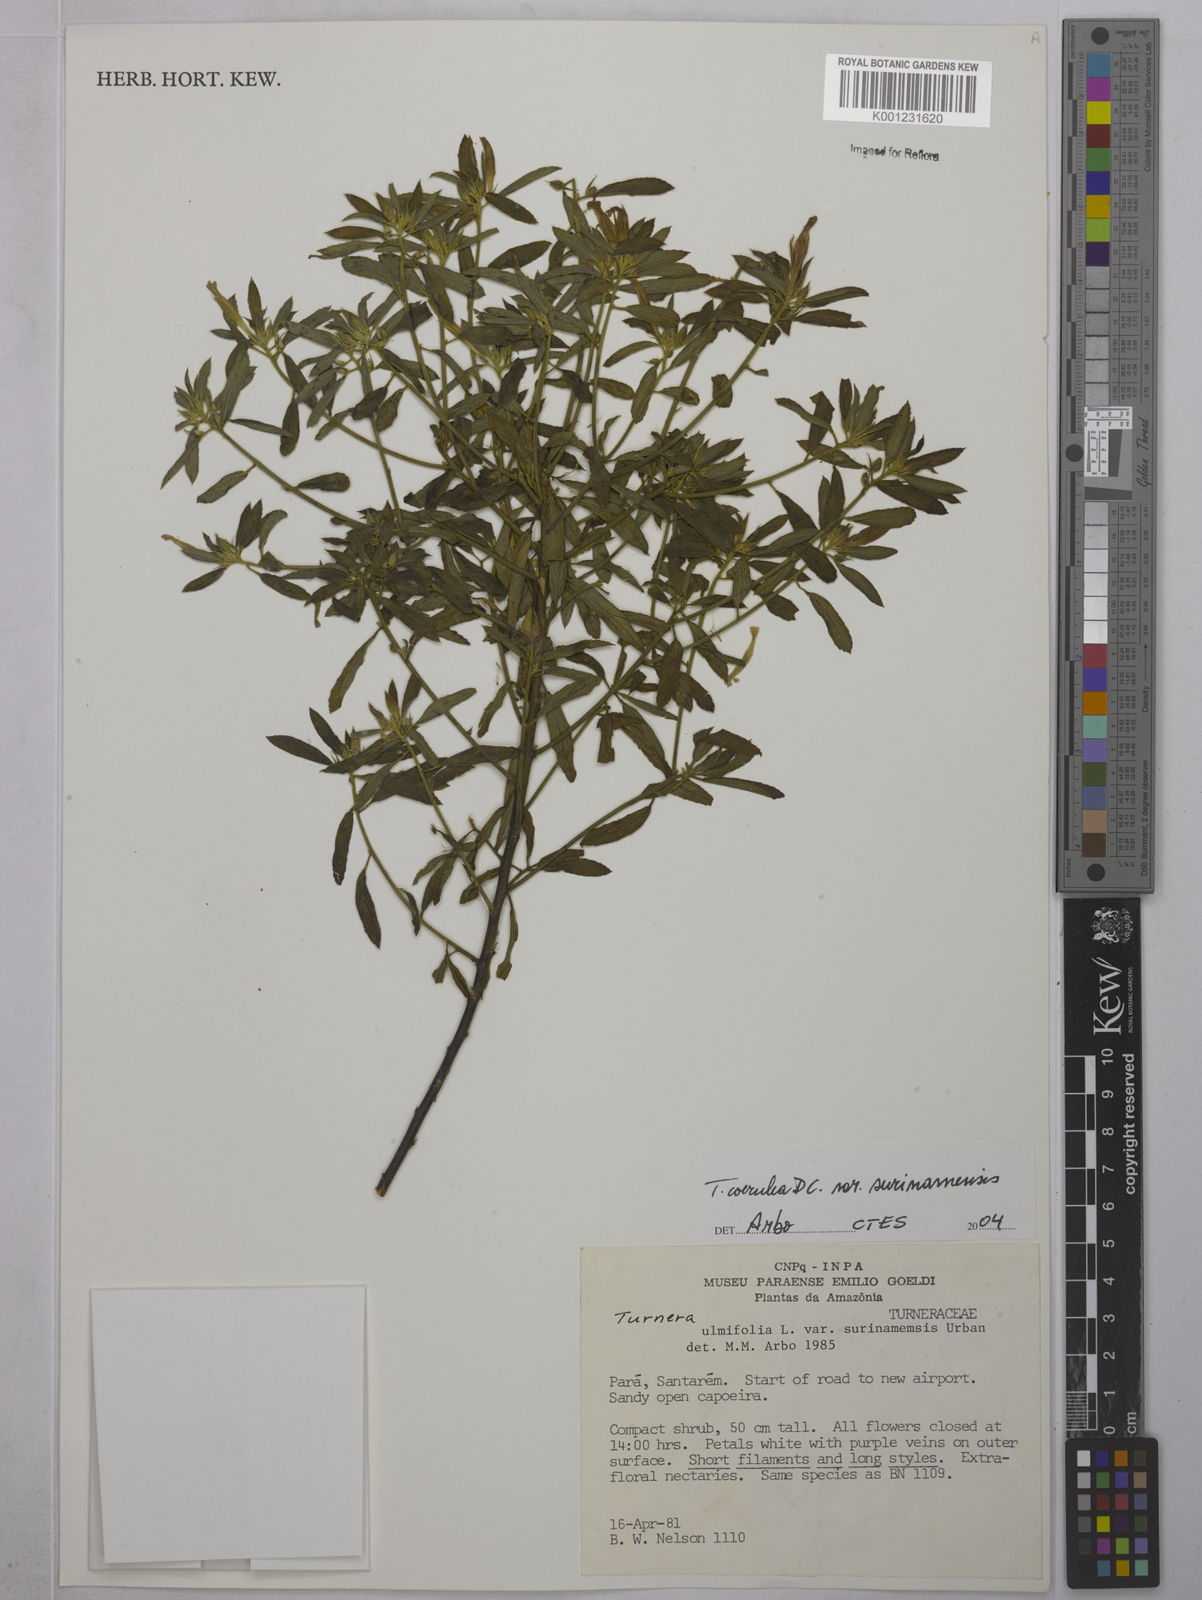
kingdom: Plantae
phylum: Tracheophyta
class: Magnoliopsida
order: Malpighiales
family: Turneraceae
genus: Turnera
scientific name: Turnera coerulea
